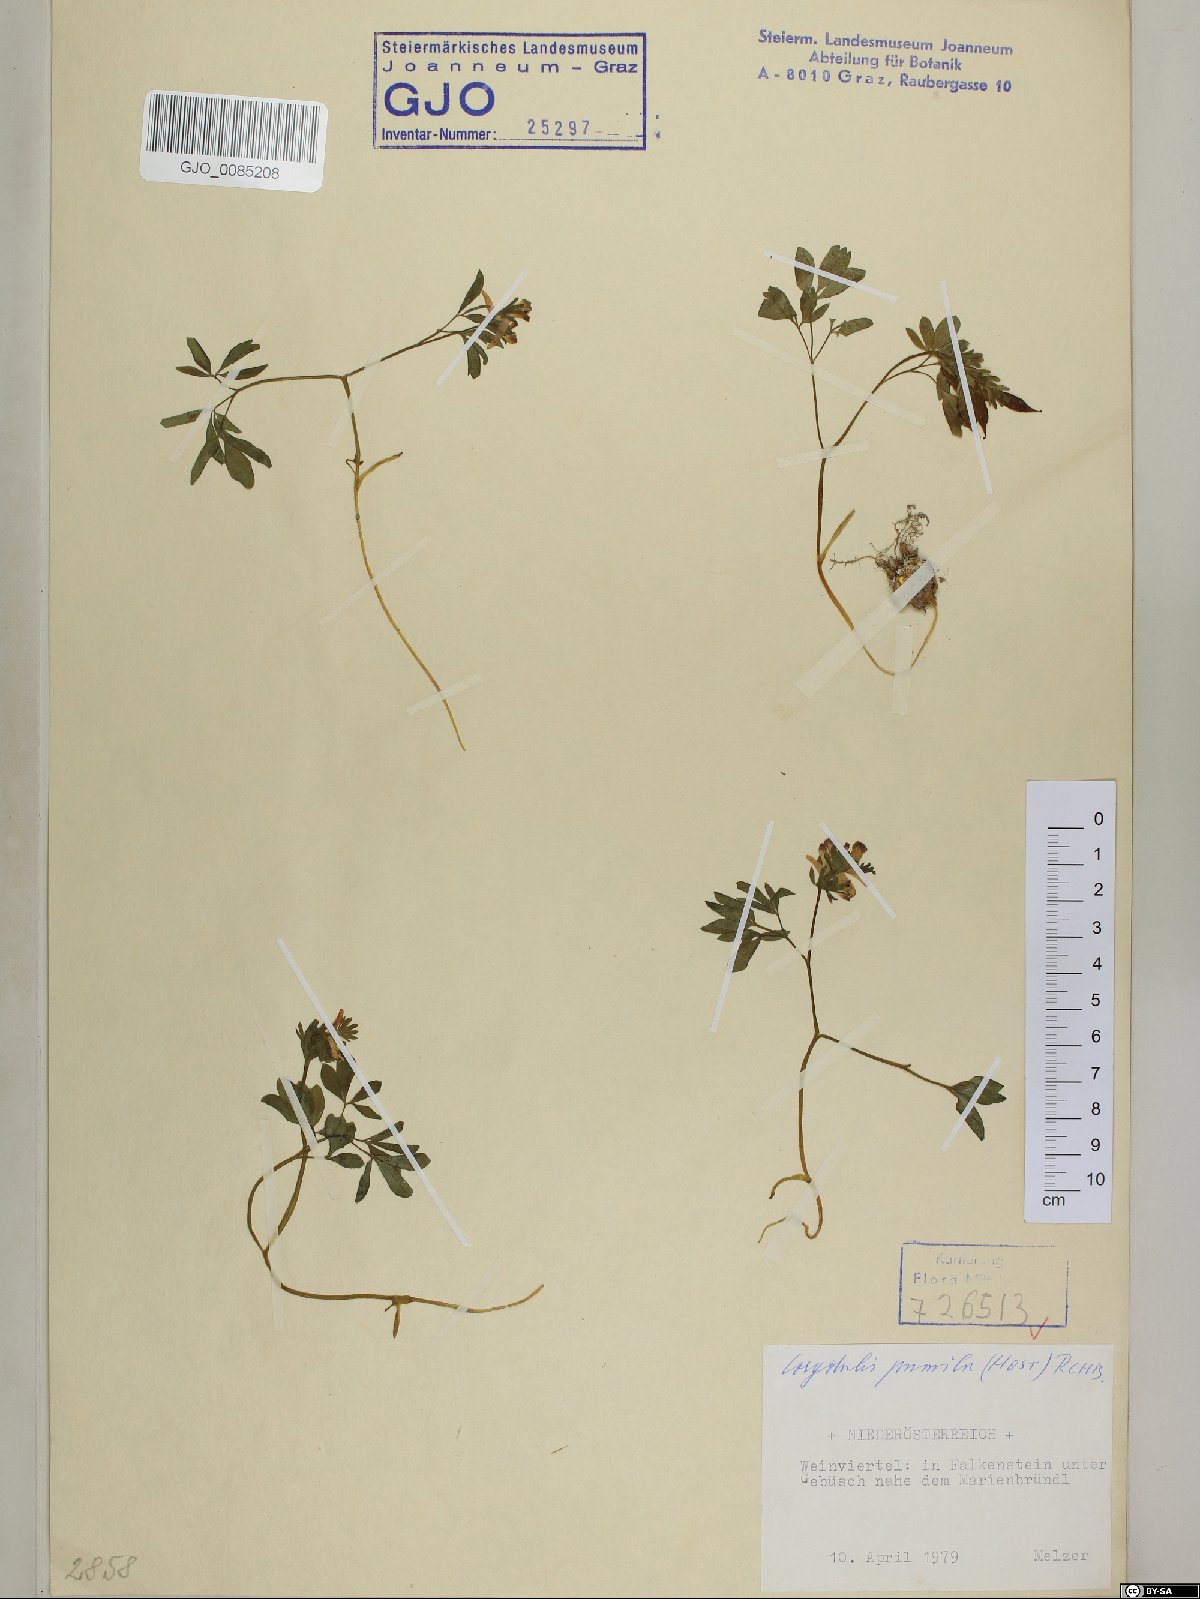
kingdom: Plantae
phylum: Tracheophyta
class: Magnoliopsida
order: Ranunculales
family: Papaveraceae
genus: Corydalis
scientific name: Corydalis pumila
